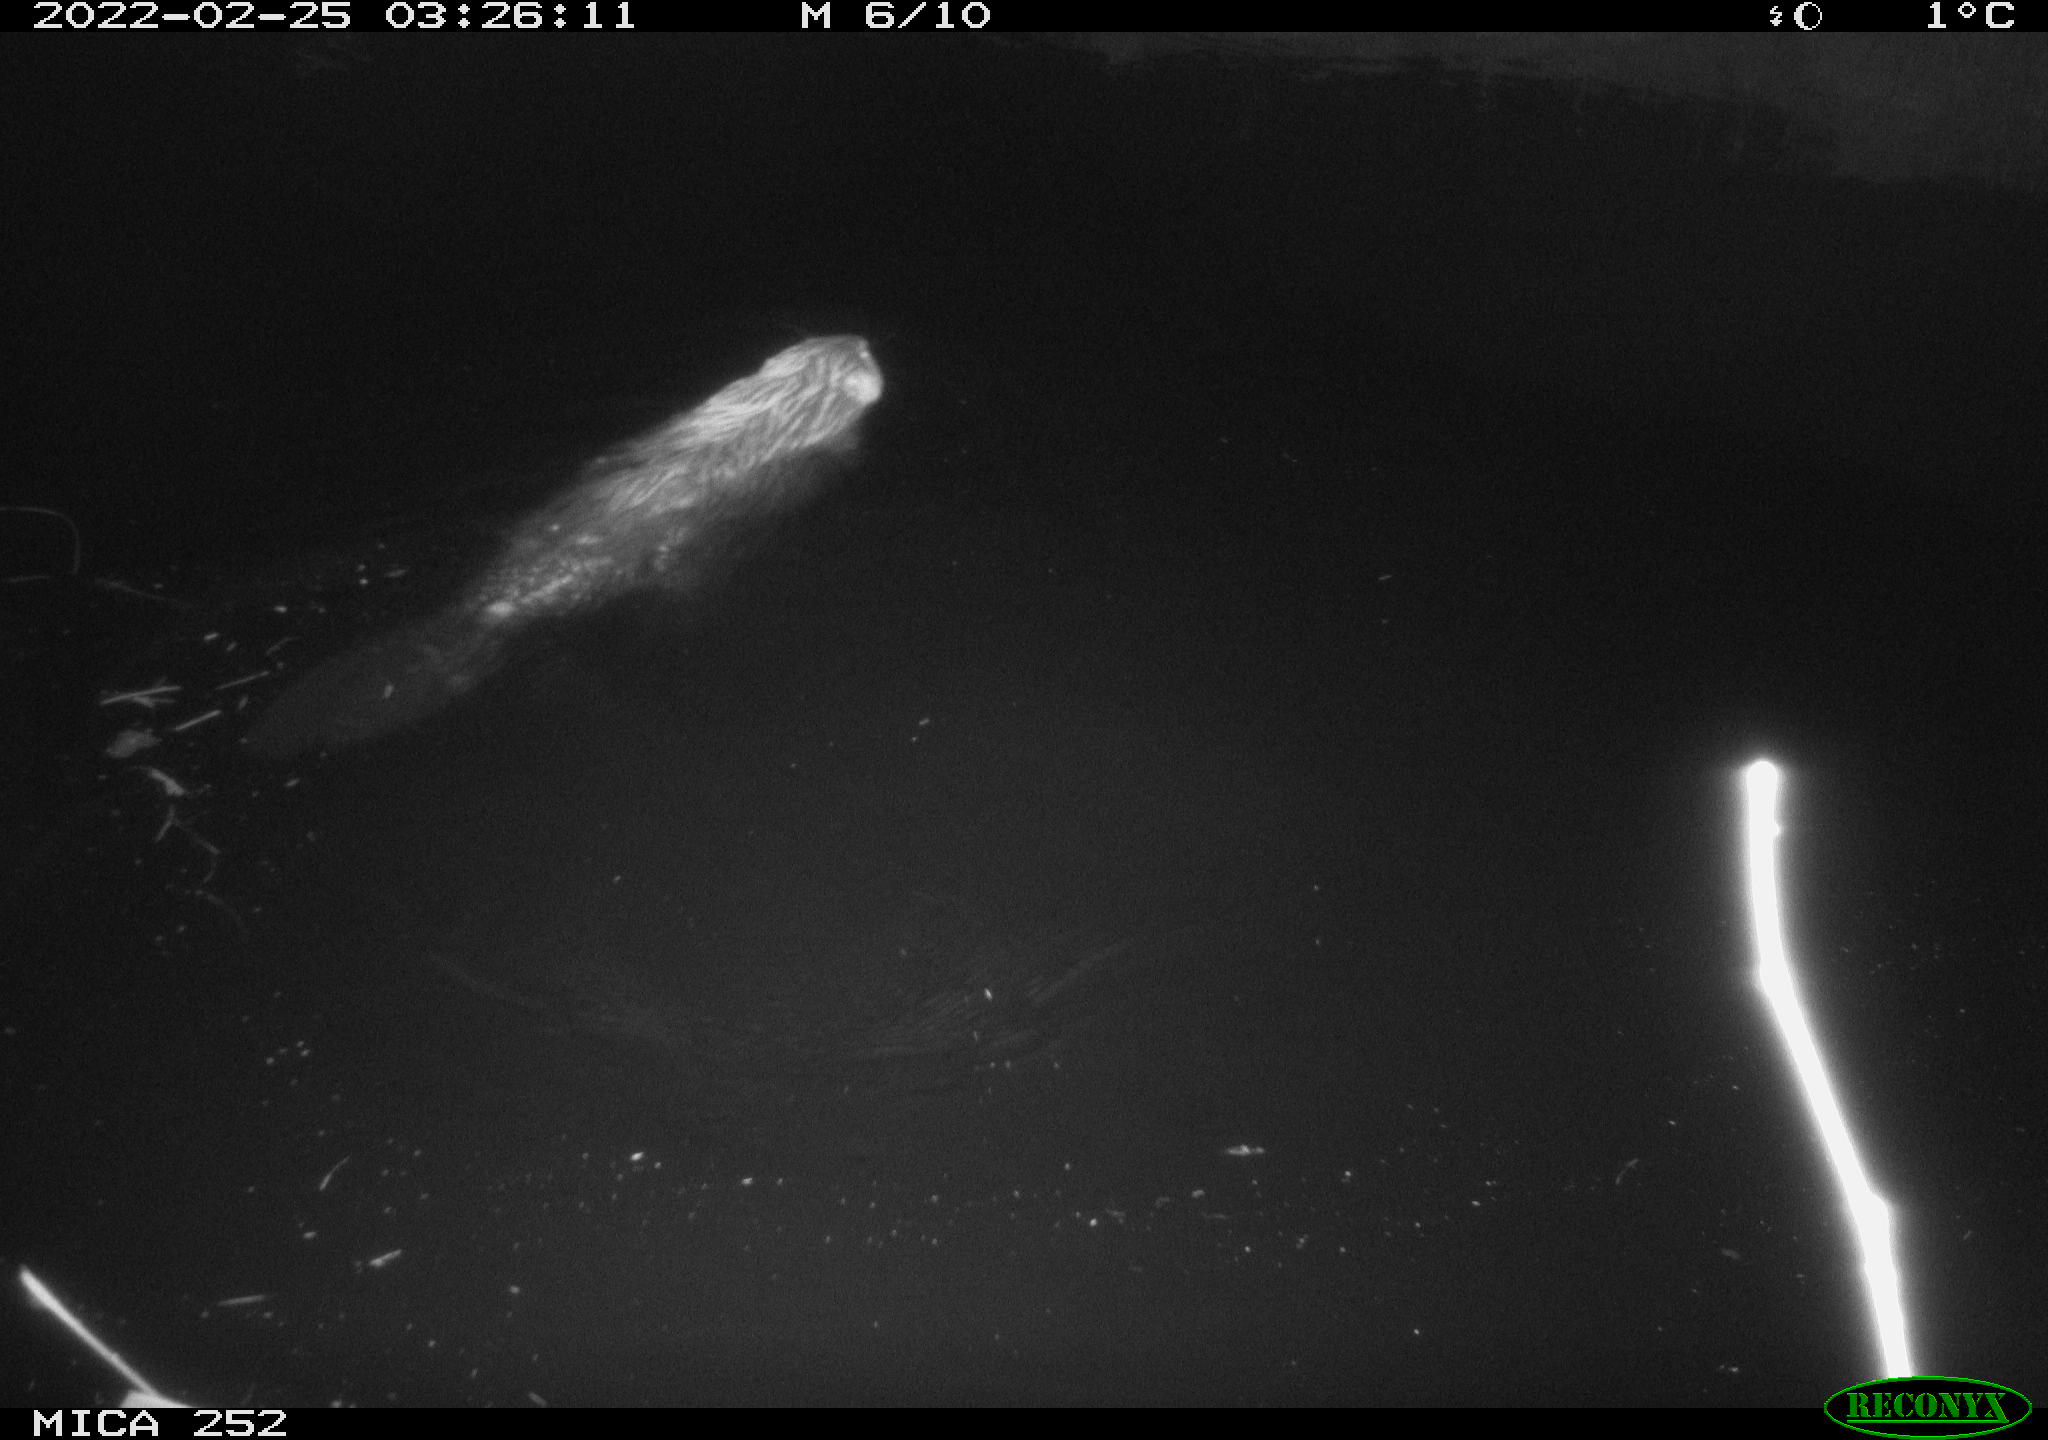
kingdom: Animalia
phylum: Chordata
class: Mammalia
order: Rodentia
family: Castoridae
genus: Castor
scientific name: Castor fiber
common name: Eurasian beaver
